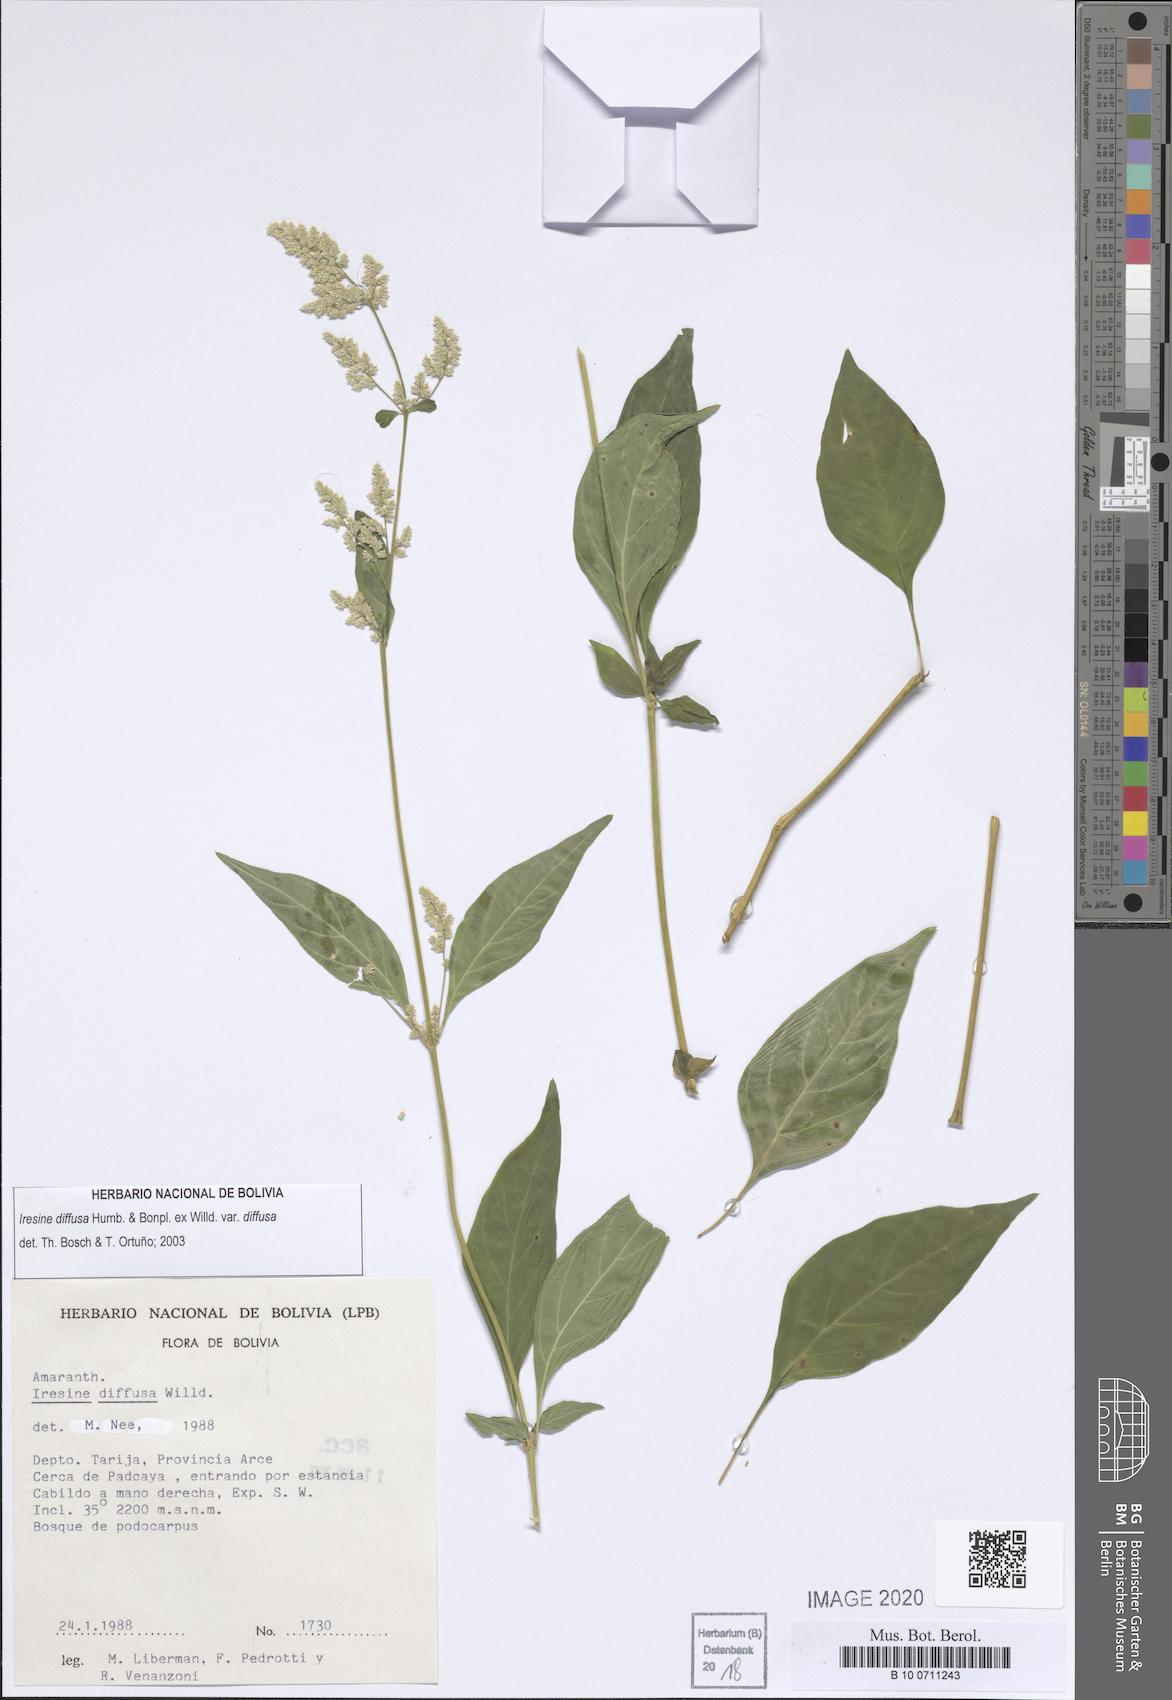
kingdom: Plantae
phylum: Tracheophyta
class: Magnoliopsida
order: Caryophyllales
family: Amaranthaceae
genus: Iresine
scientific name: Iresine diffusa
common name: Juba's-bush
